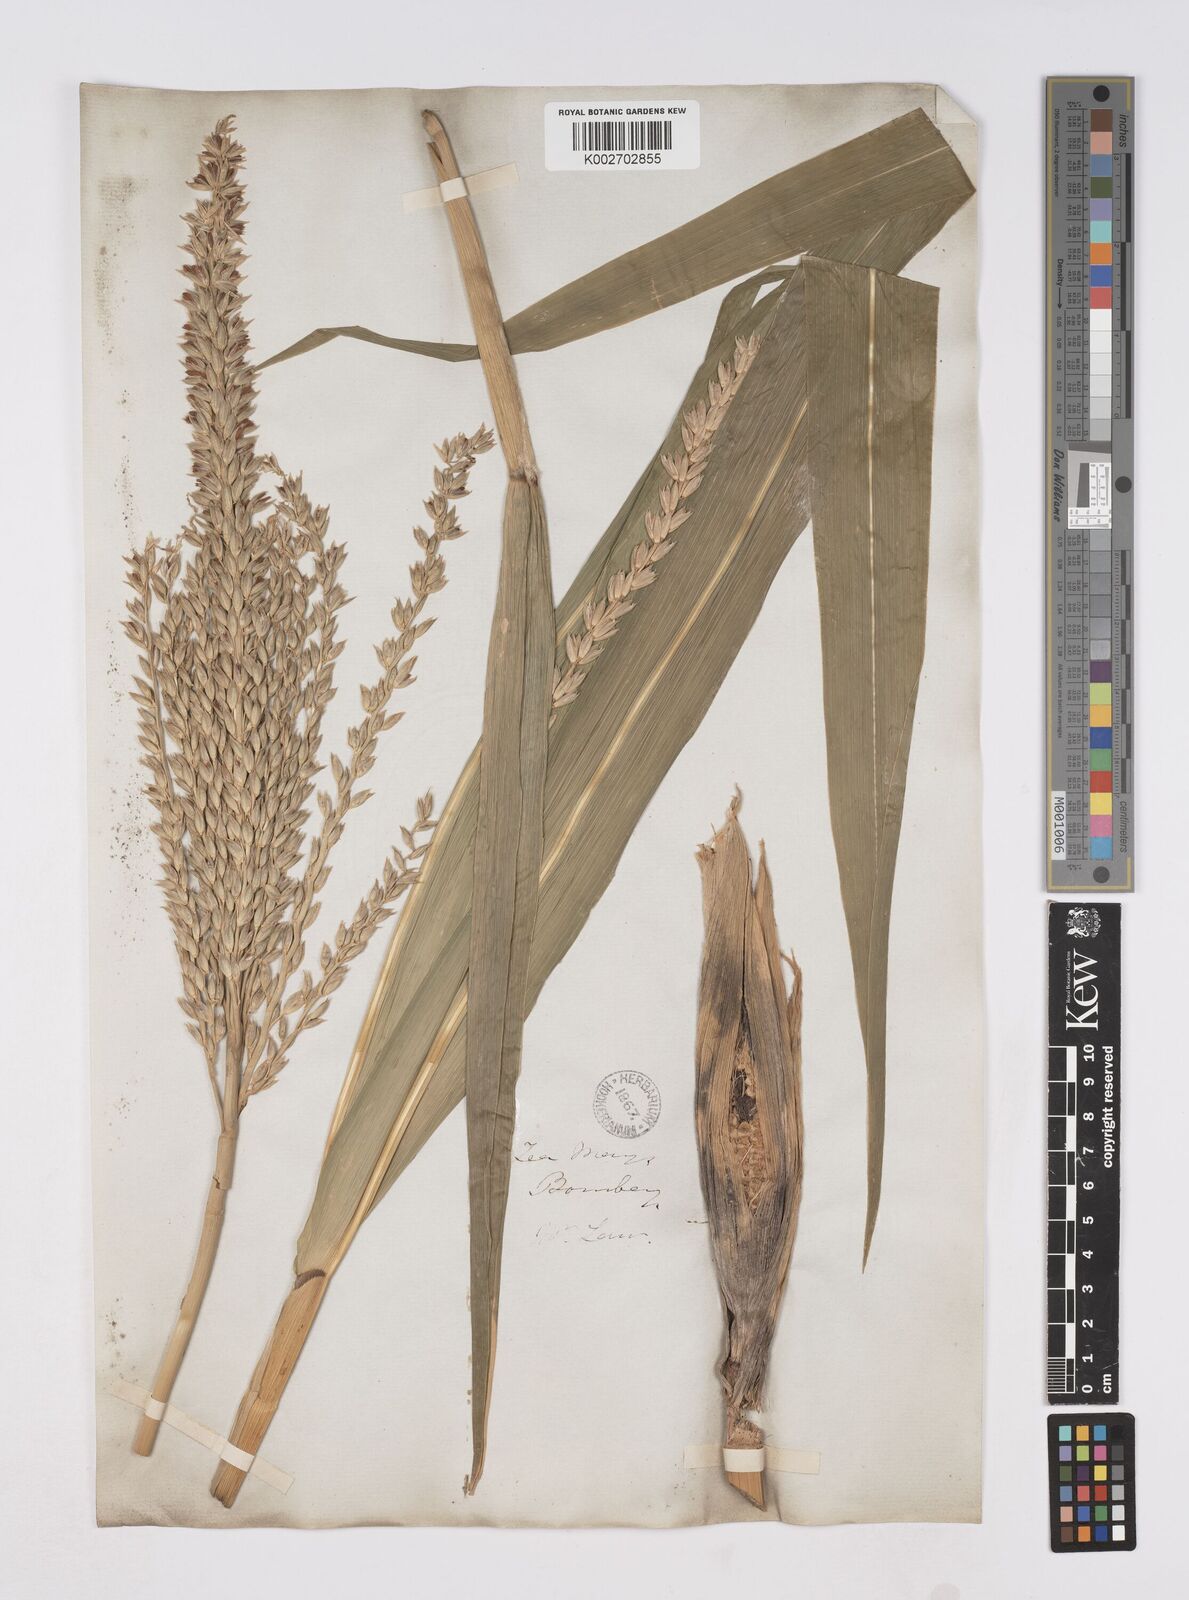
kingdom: Plantae
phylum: Tracheophyta
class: Liliopsida
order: Poales
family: Poaceae
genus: Zea
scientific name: Zea mays
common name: Maize
